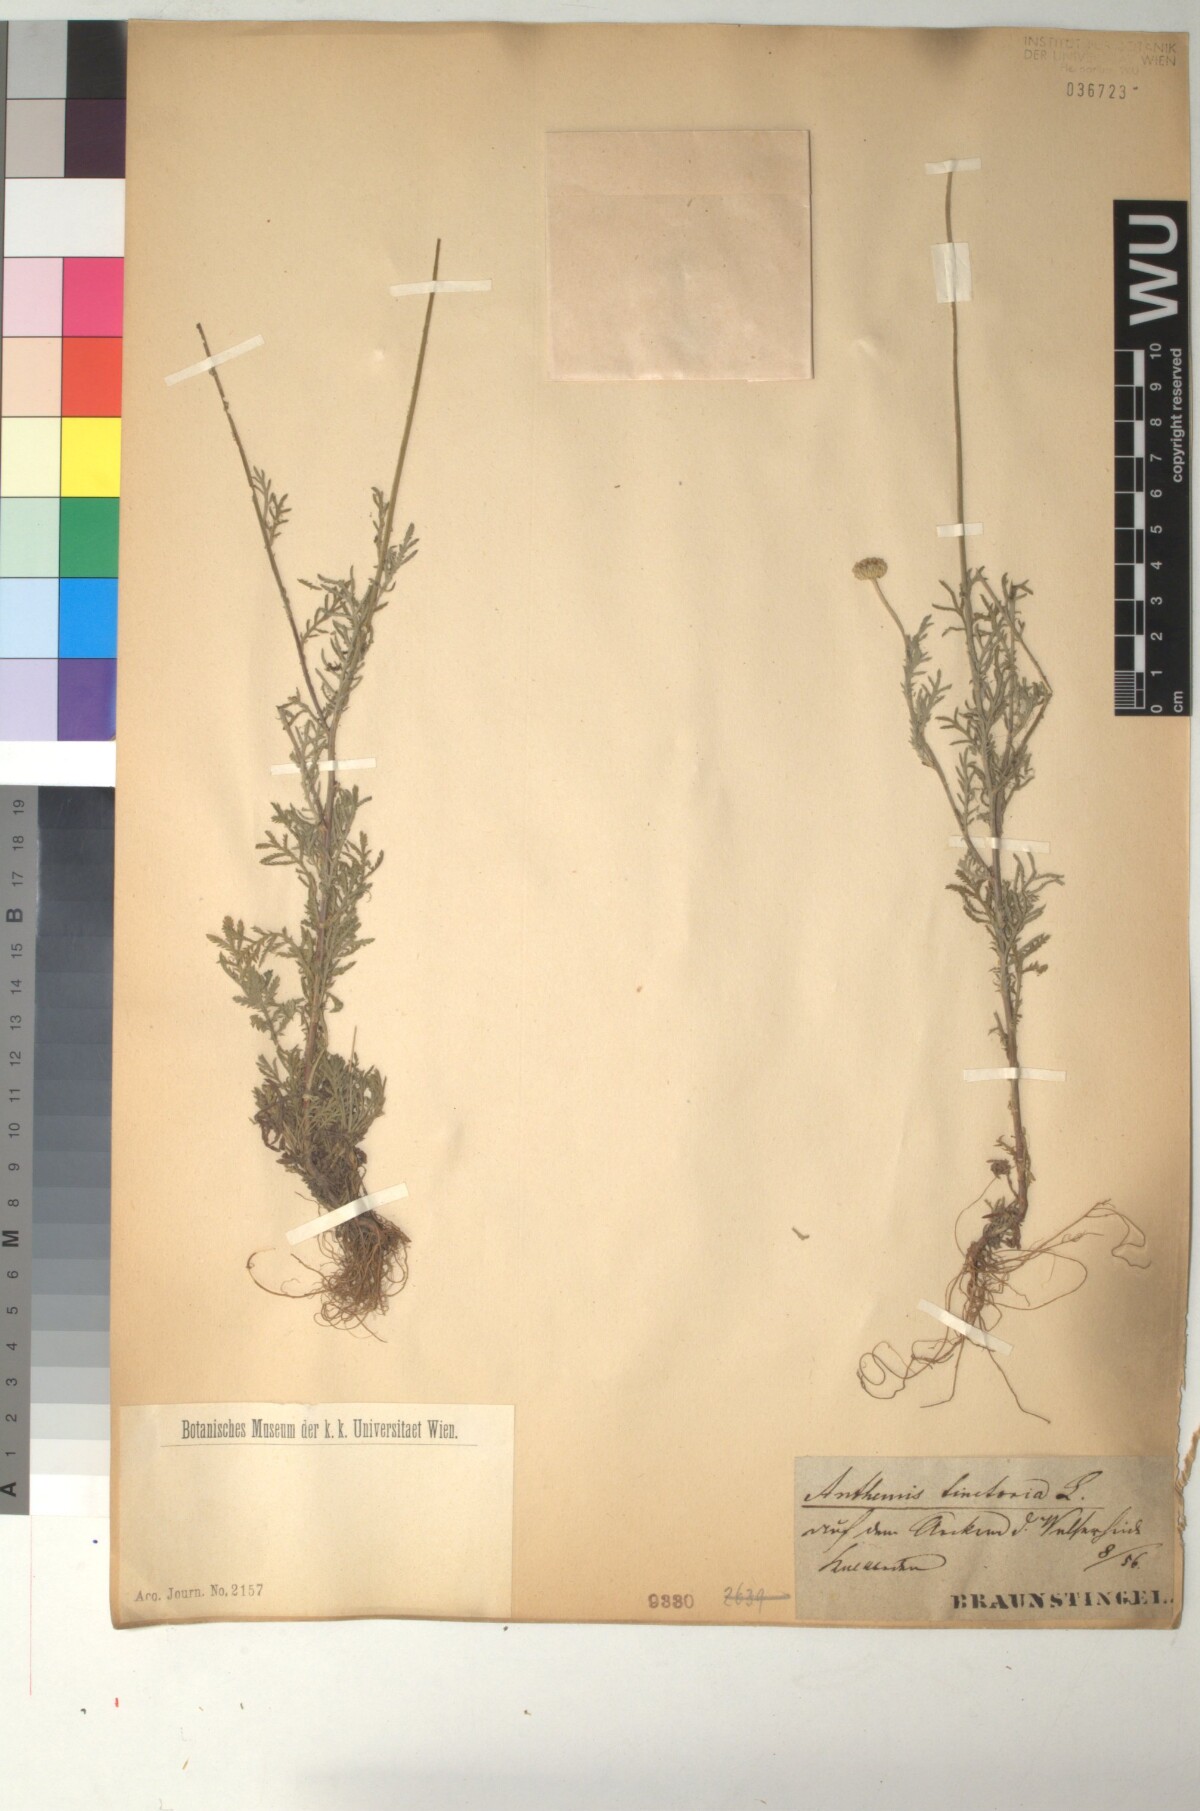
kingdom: Plantae
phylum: Tracheophyta
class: Magnoliopsida
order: Asterales
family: Asteraceae
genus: Cota
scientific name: Cota tinctoria
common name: Golden chamomile
